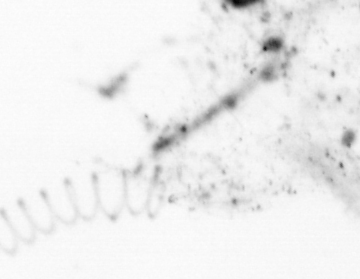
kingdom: Chromista
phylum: Ochrophyta
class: Bacillariophyceae
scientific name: Bacillariophyceae
